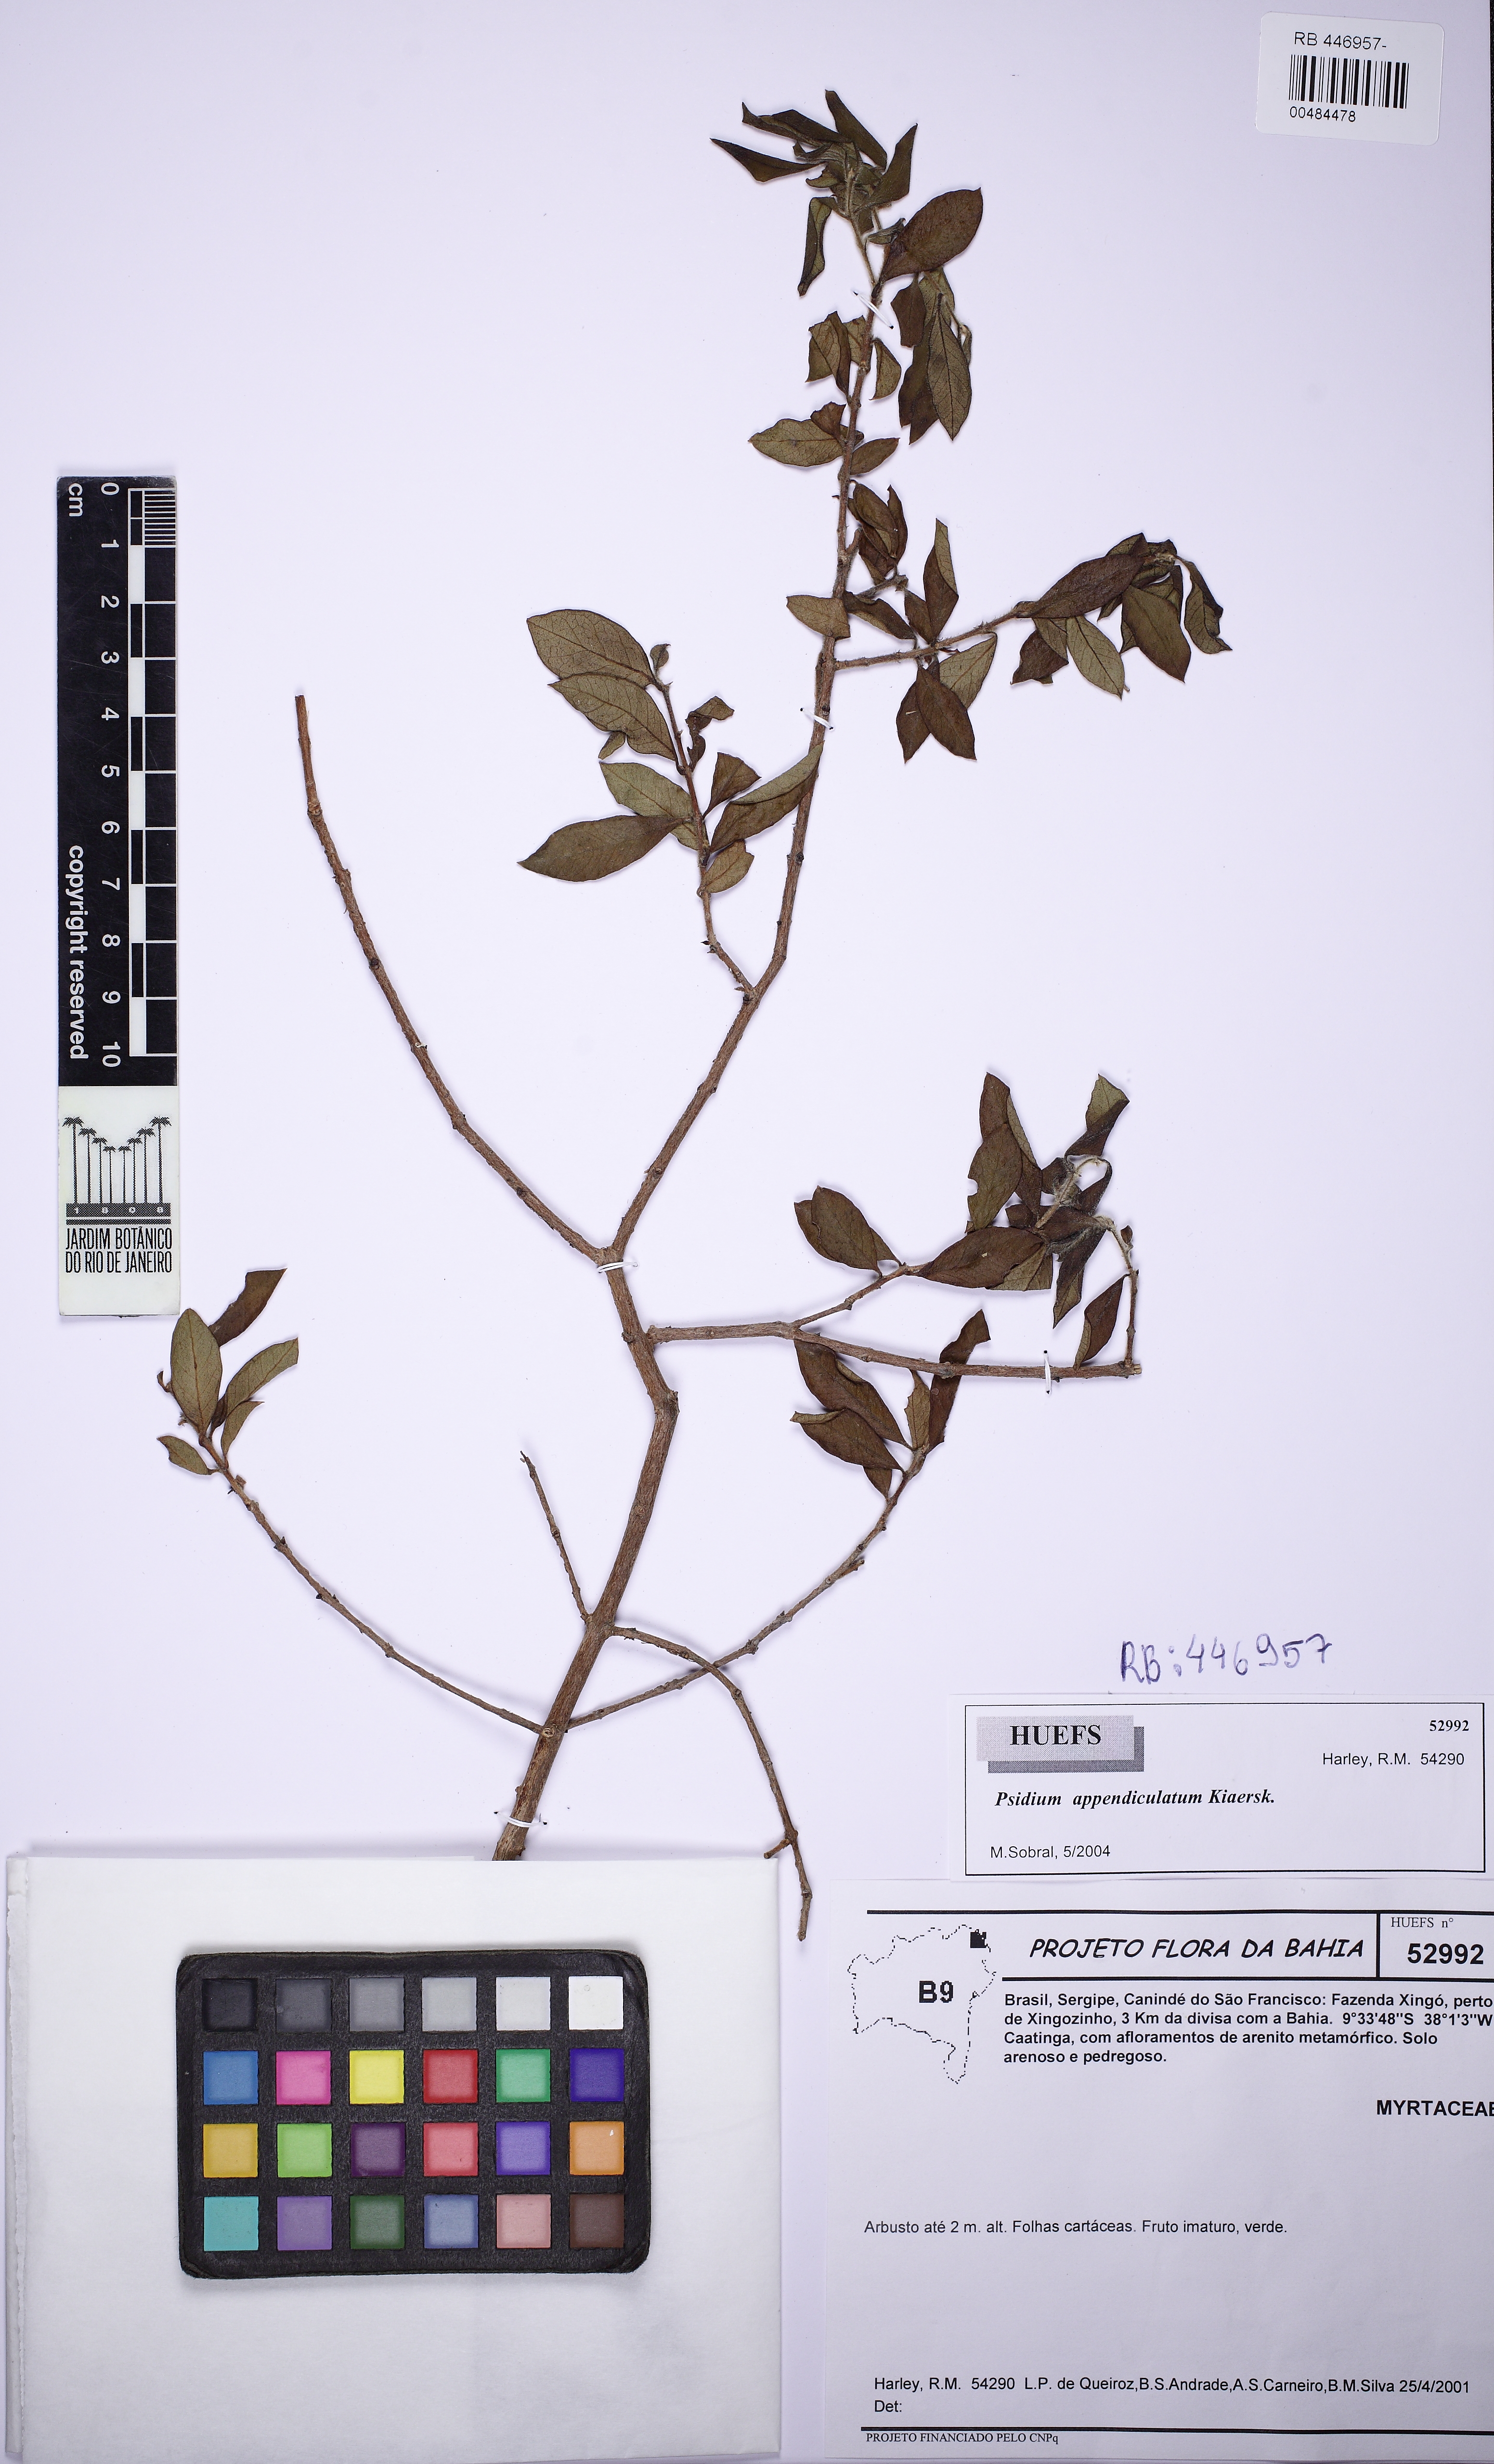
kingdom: Plantae
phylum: Tracheophyta
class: Magnoliopsida
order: Myrtales
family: Myrtaceae
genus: Psidium
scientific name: Psidium appendiculatum
